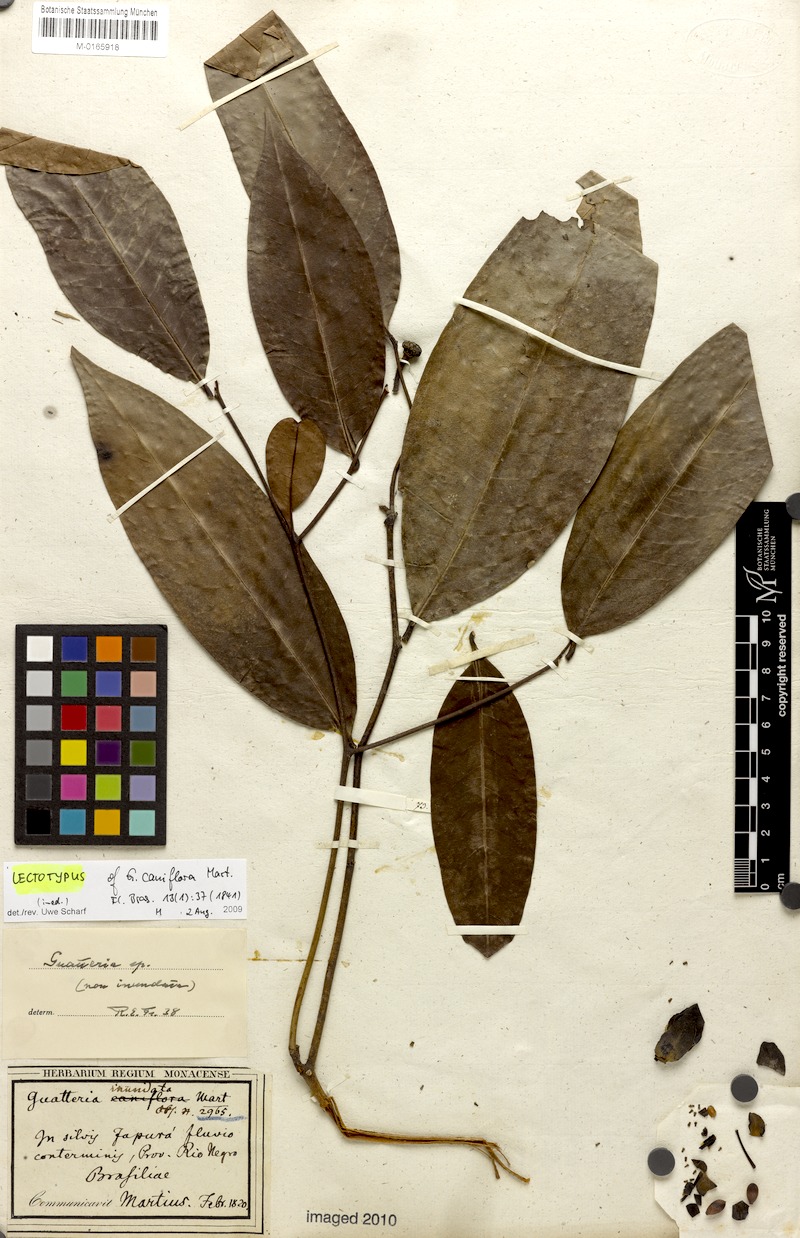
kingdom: Plantae
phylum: Tracheophyta
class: Magnoliopsida
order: Magnoliales
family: Annonaceae
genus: Guatteria
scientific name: Guatteria caniflora
